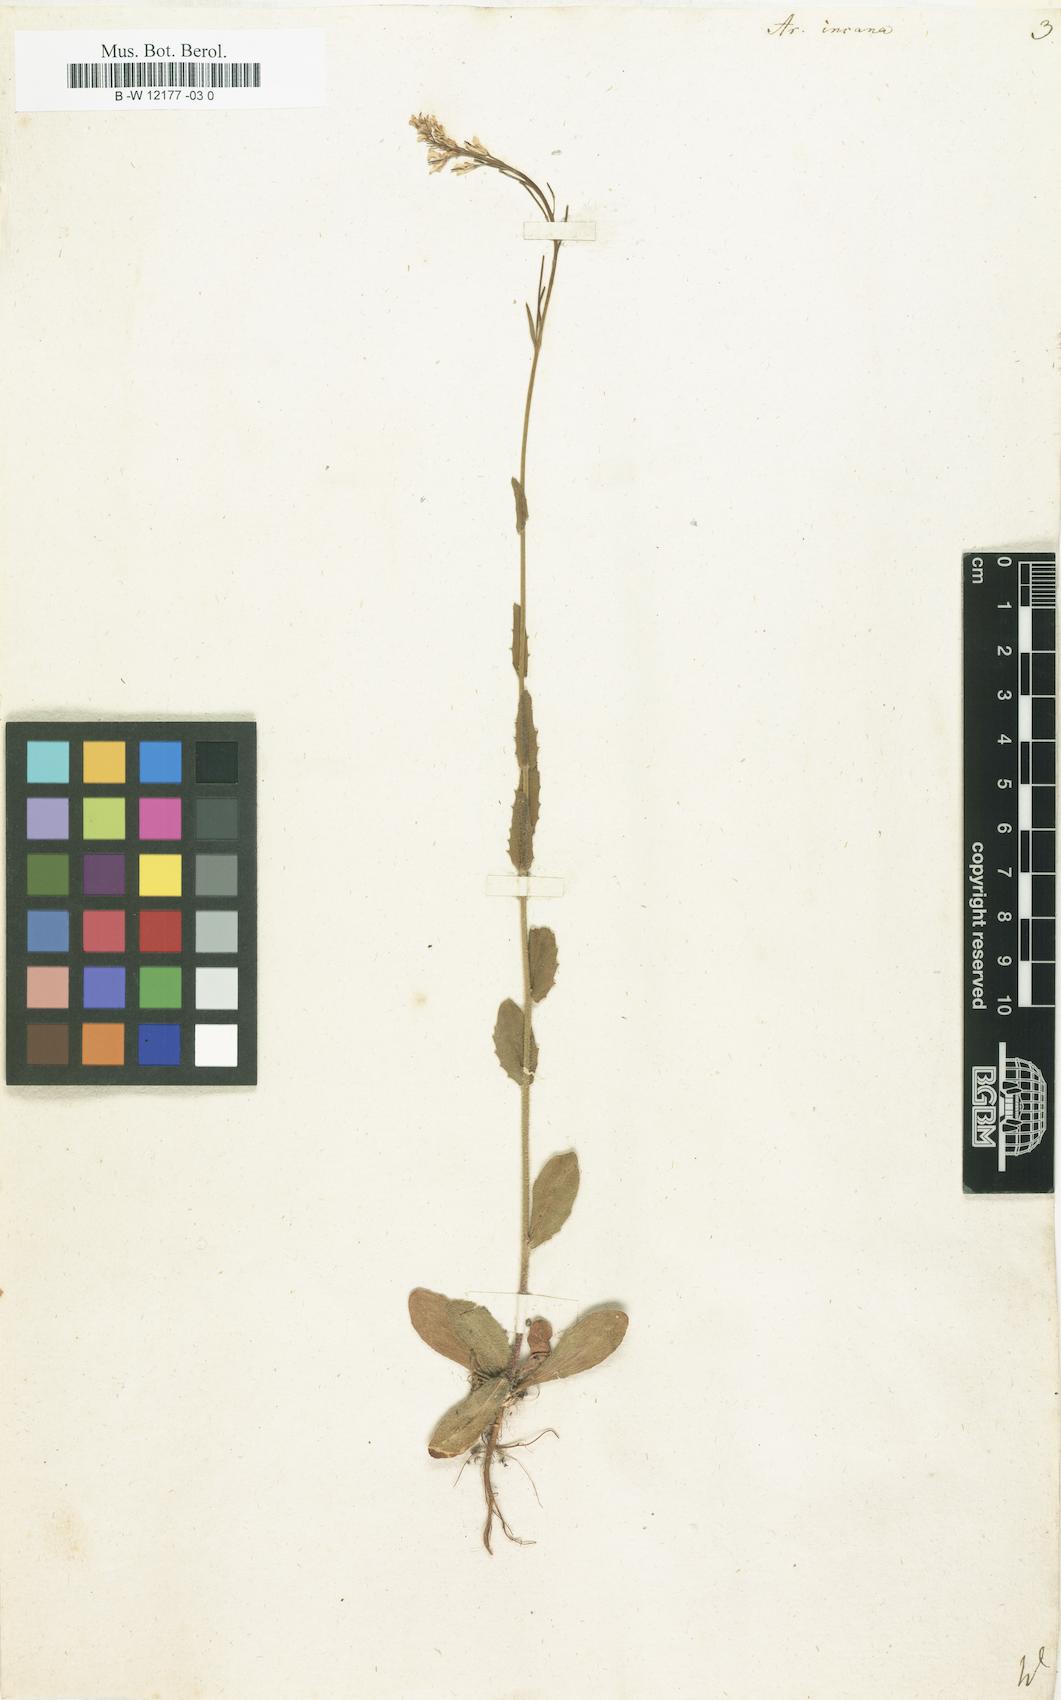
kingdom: Plantae
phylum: Tracheophyta
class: Magnoliopsida
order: Brassicales
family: Brassicaceae
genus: Arabis
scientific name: Arabis incana
